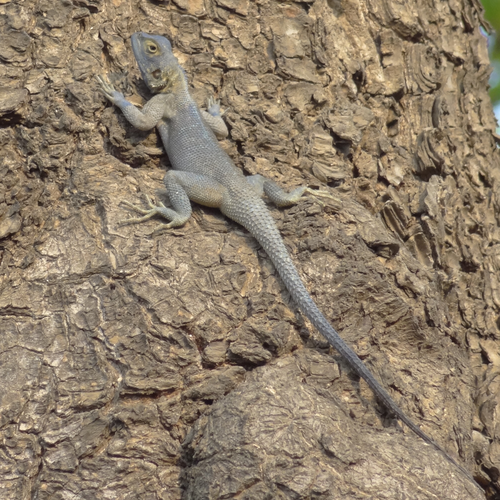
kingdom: Animalia
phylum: Chordata
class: Squamata
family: Agamidae
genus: Agama
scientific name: Agama mucosoensis
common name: Mucoso agama
